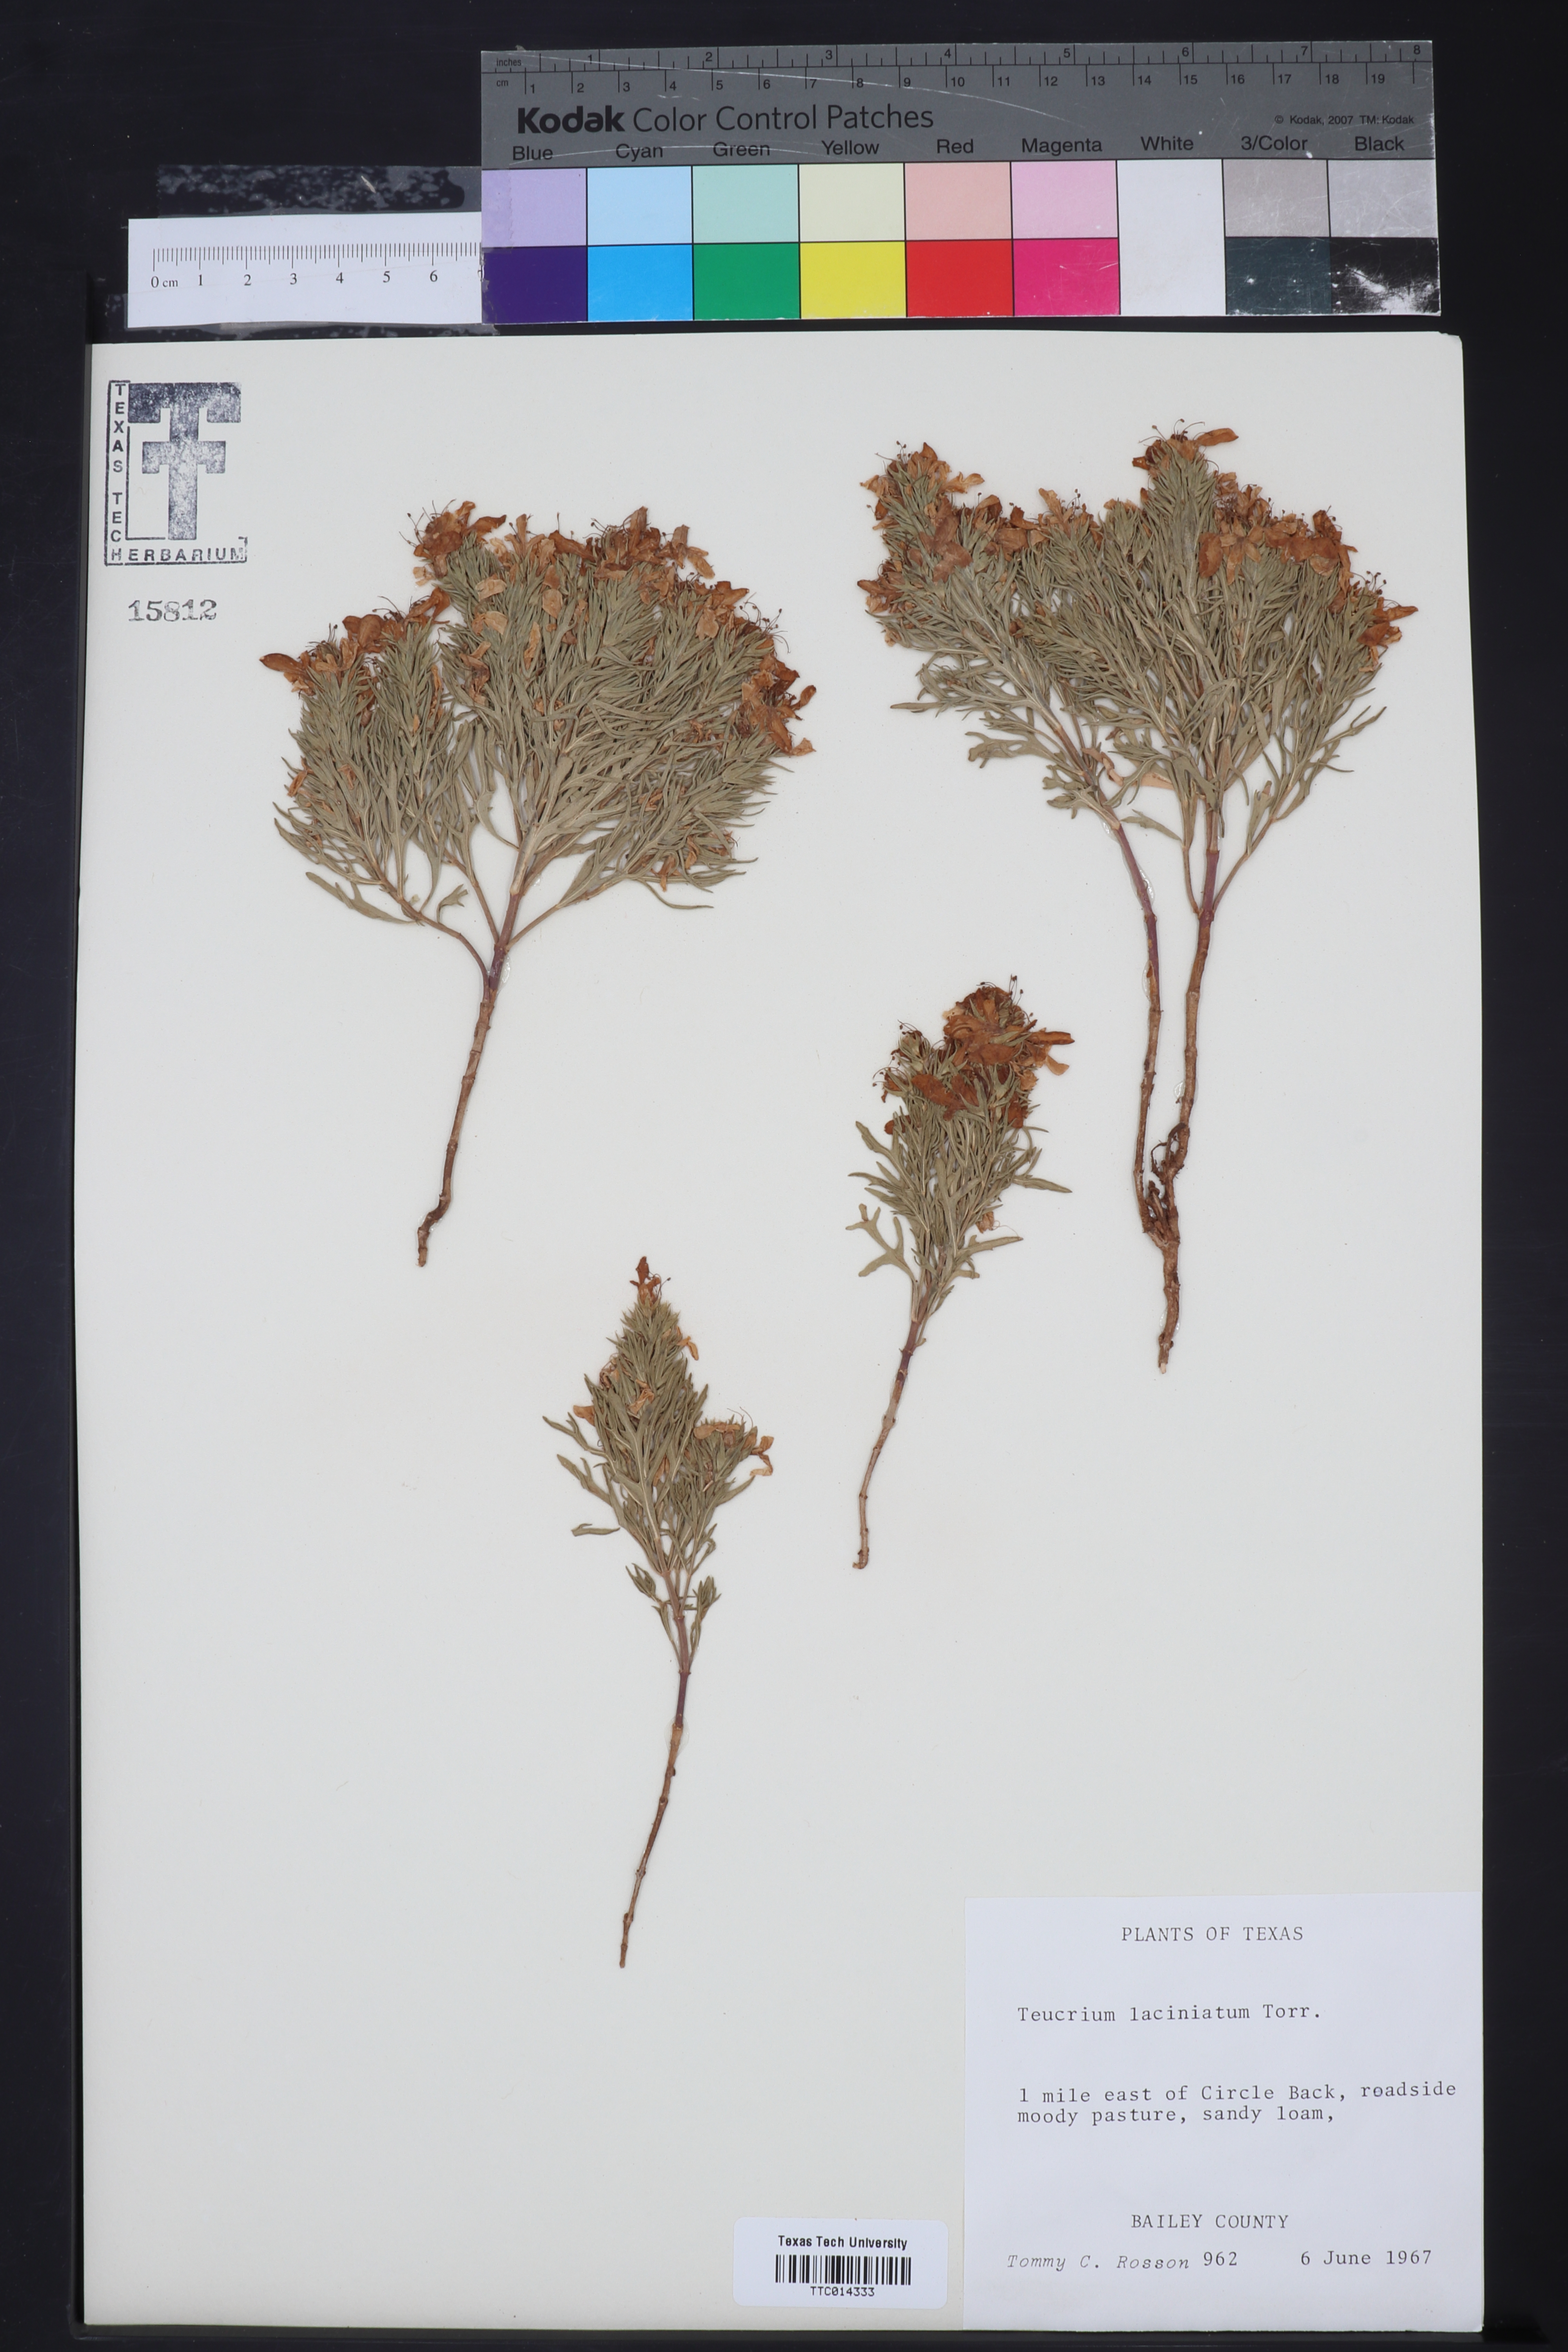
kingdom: Plantae
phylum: Tracheophyta
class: Magnoliopsida
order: Lamiales
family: Lamiaceae
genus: Teucrium
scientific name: Teucrium laciniatum
